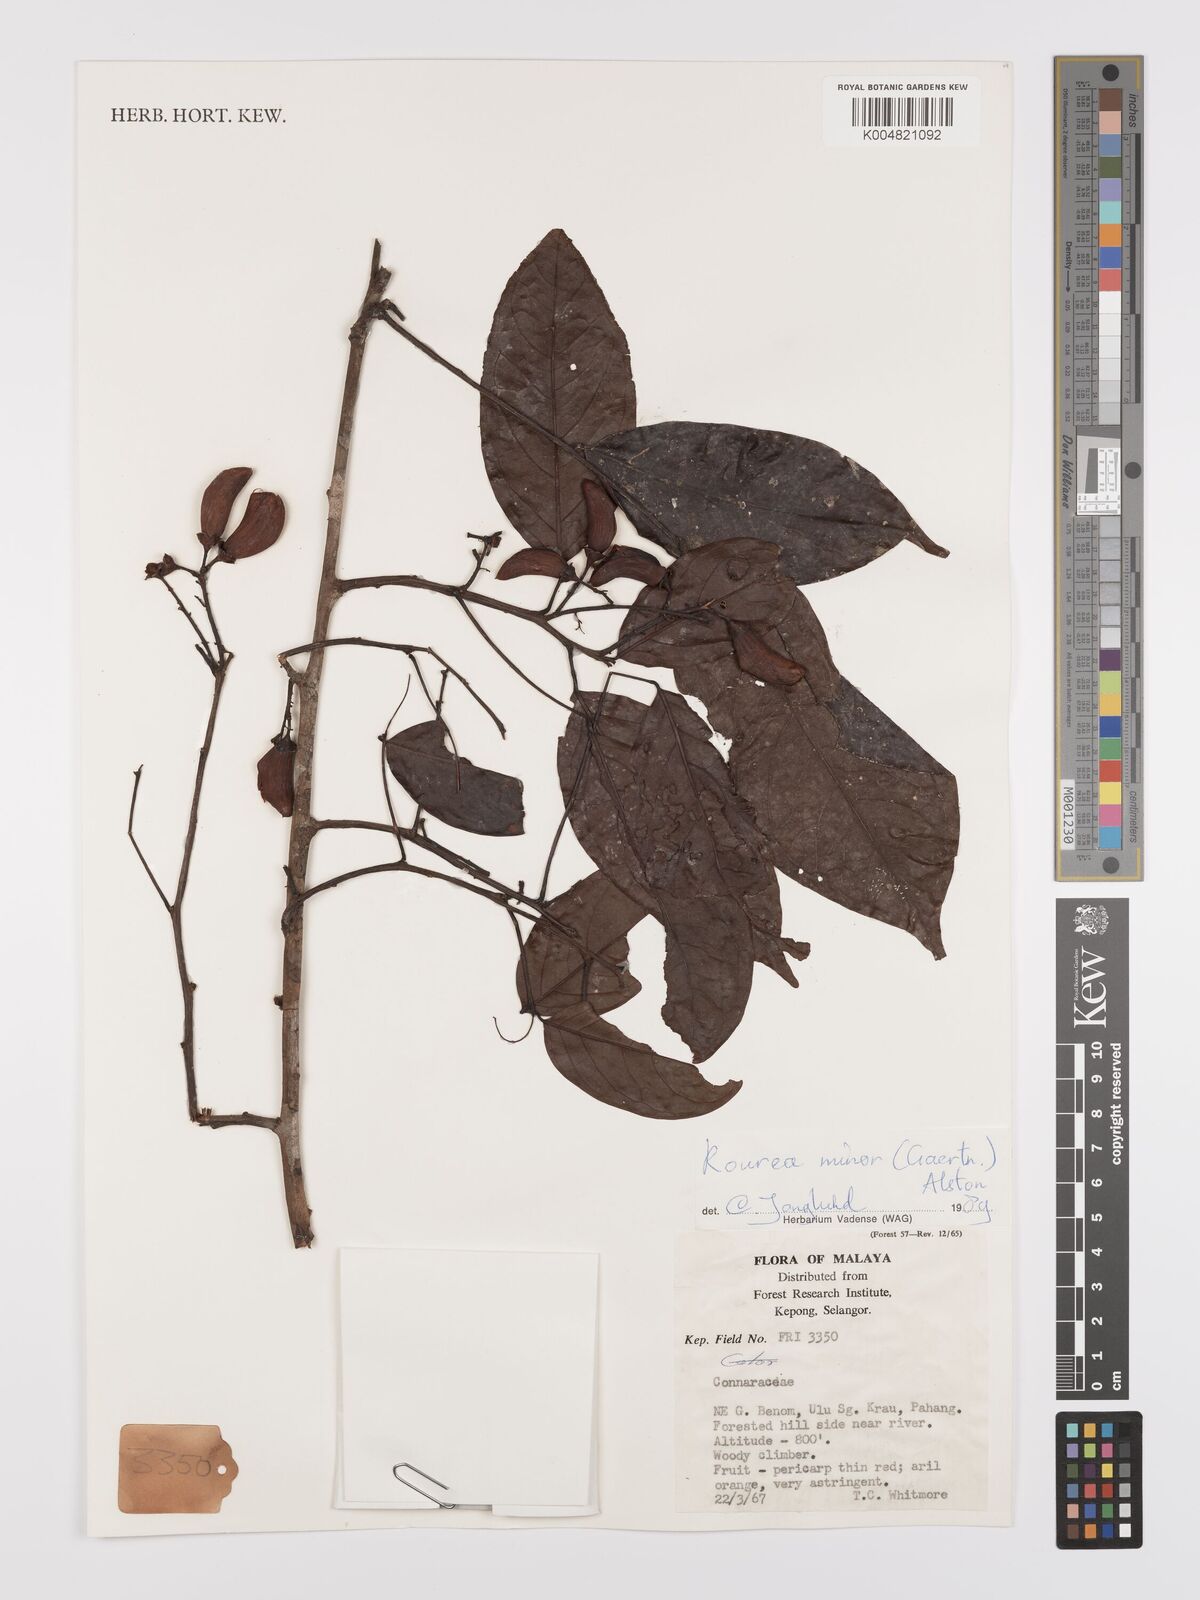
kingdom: Plantae
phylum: Tracheophyta
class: Magnoliopsida
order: Oxalidales
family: Connaraceae
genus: Rourea
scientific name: Rourea minor
